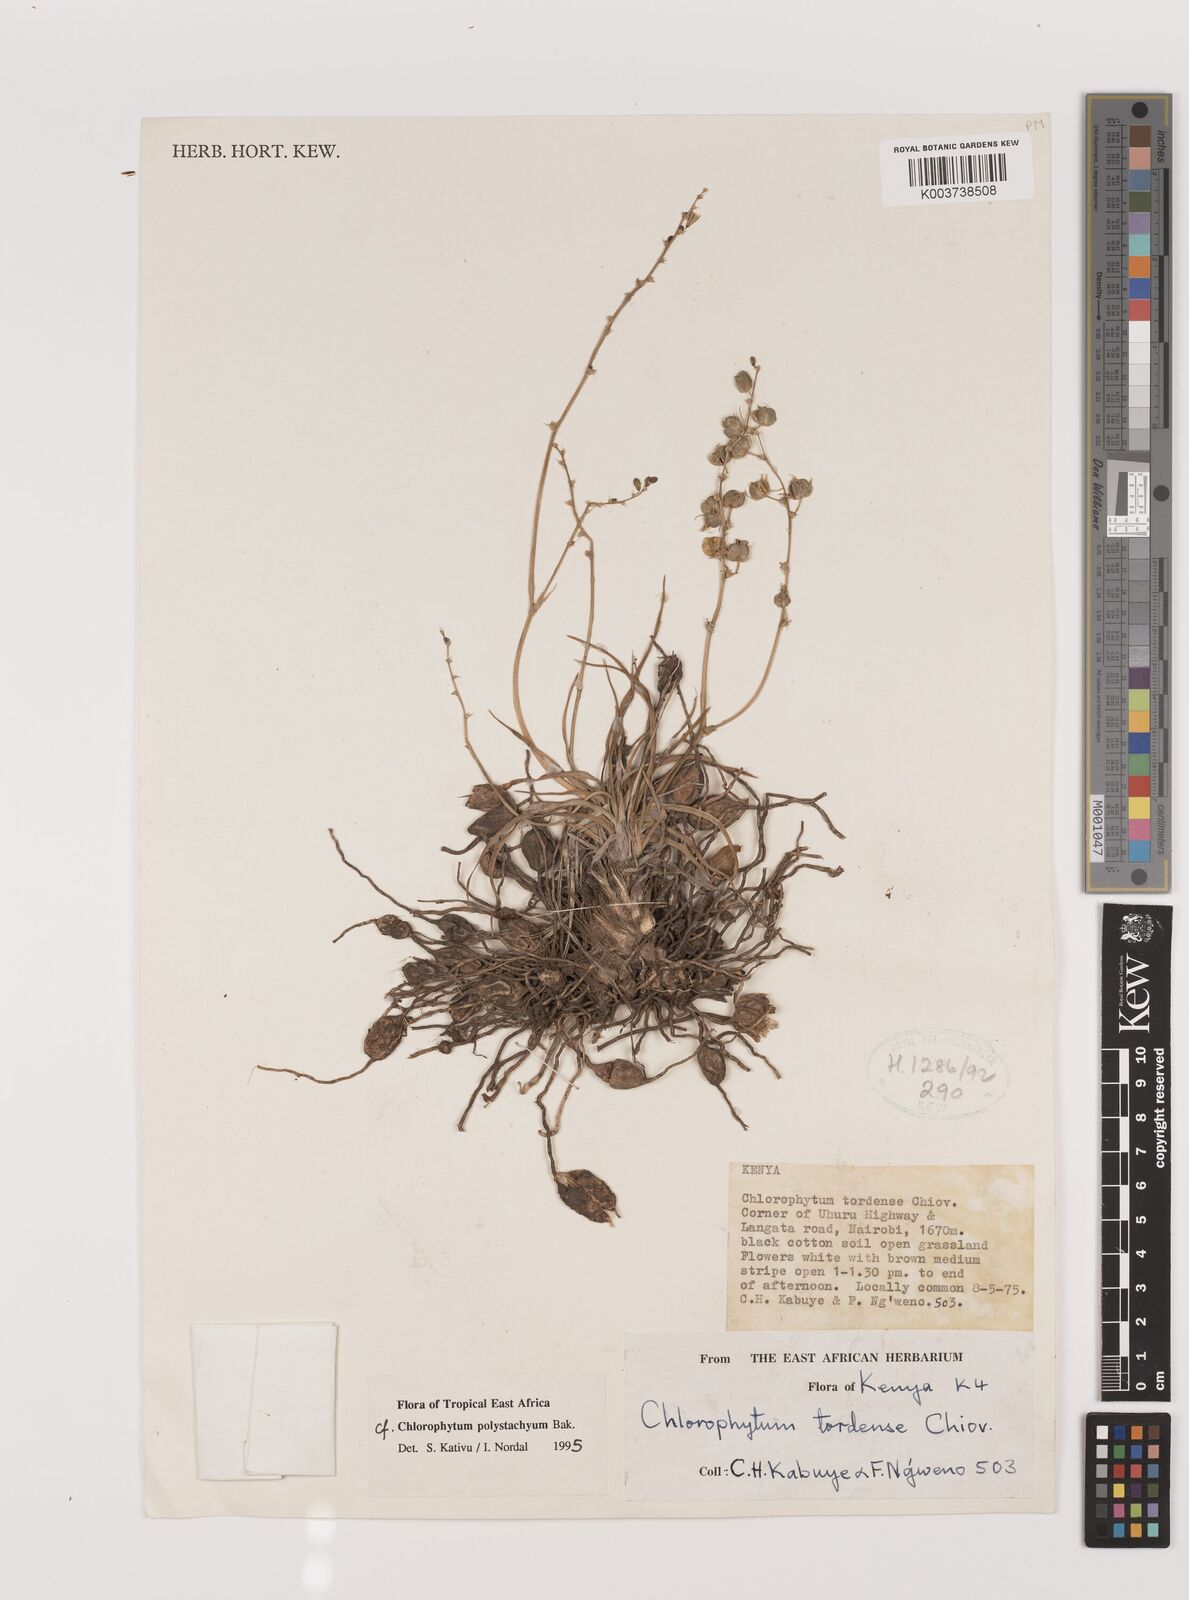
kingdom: Plantae
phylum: Tracheophyta
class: Liliopsida
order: Asparagales
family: Asparagaceae
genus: Chlorophytum
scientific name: Chlorophytum polystachys
